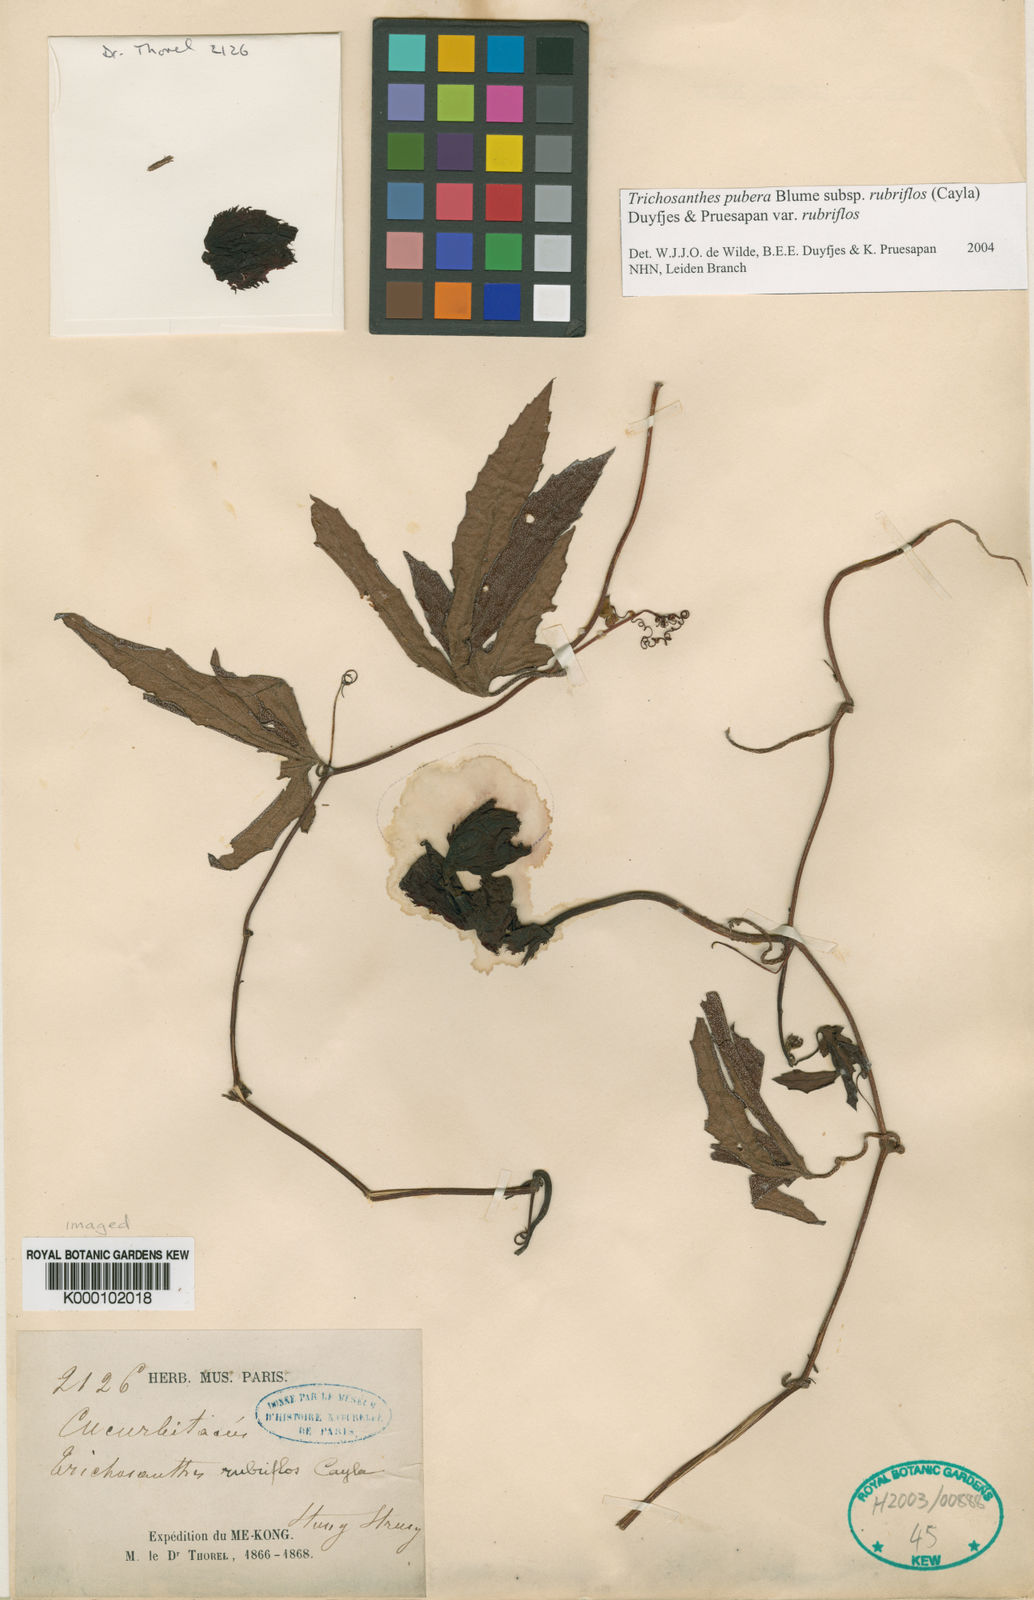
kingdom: Plantae
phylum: Tracheophyta
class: Magnoliopsida
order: Cucurbitales
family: Cucurbitaceae
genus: Trichosanthes
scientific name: Trichosanthes rubriflos
